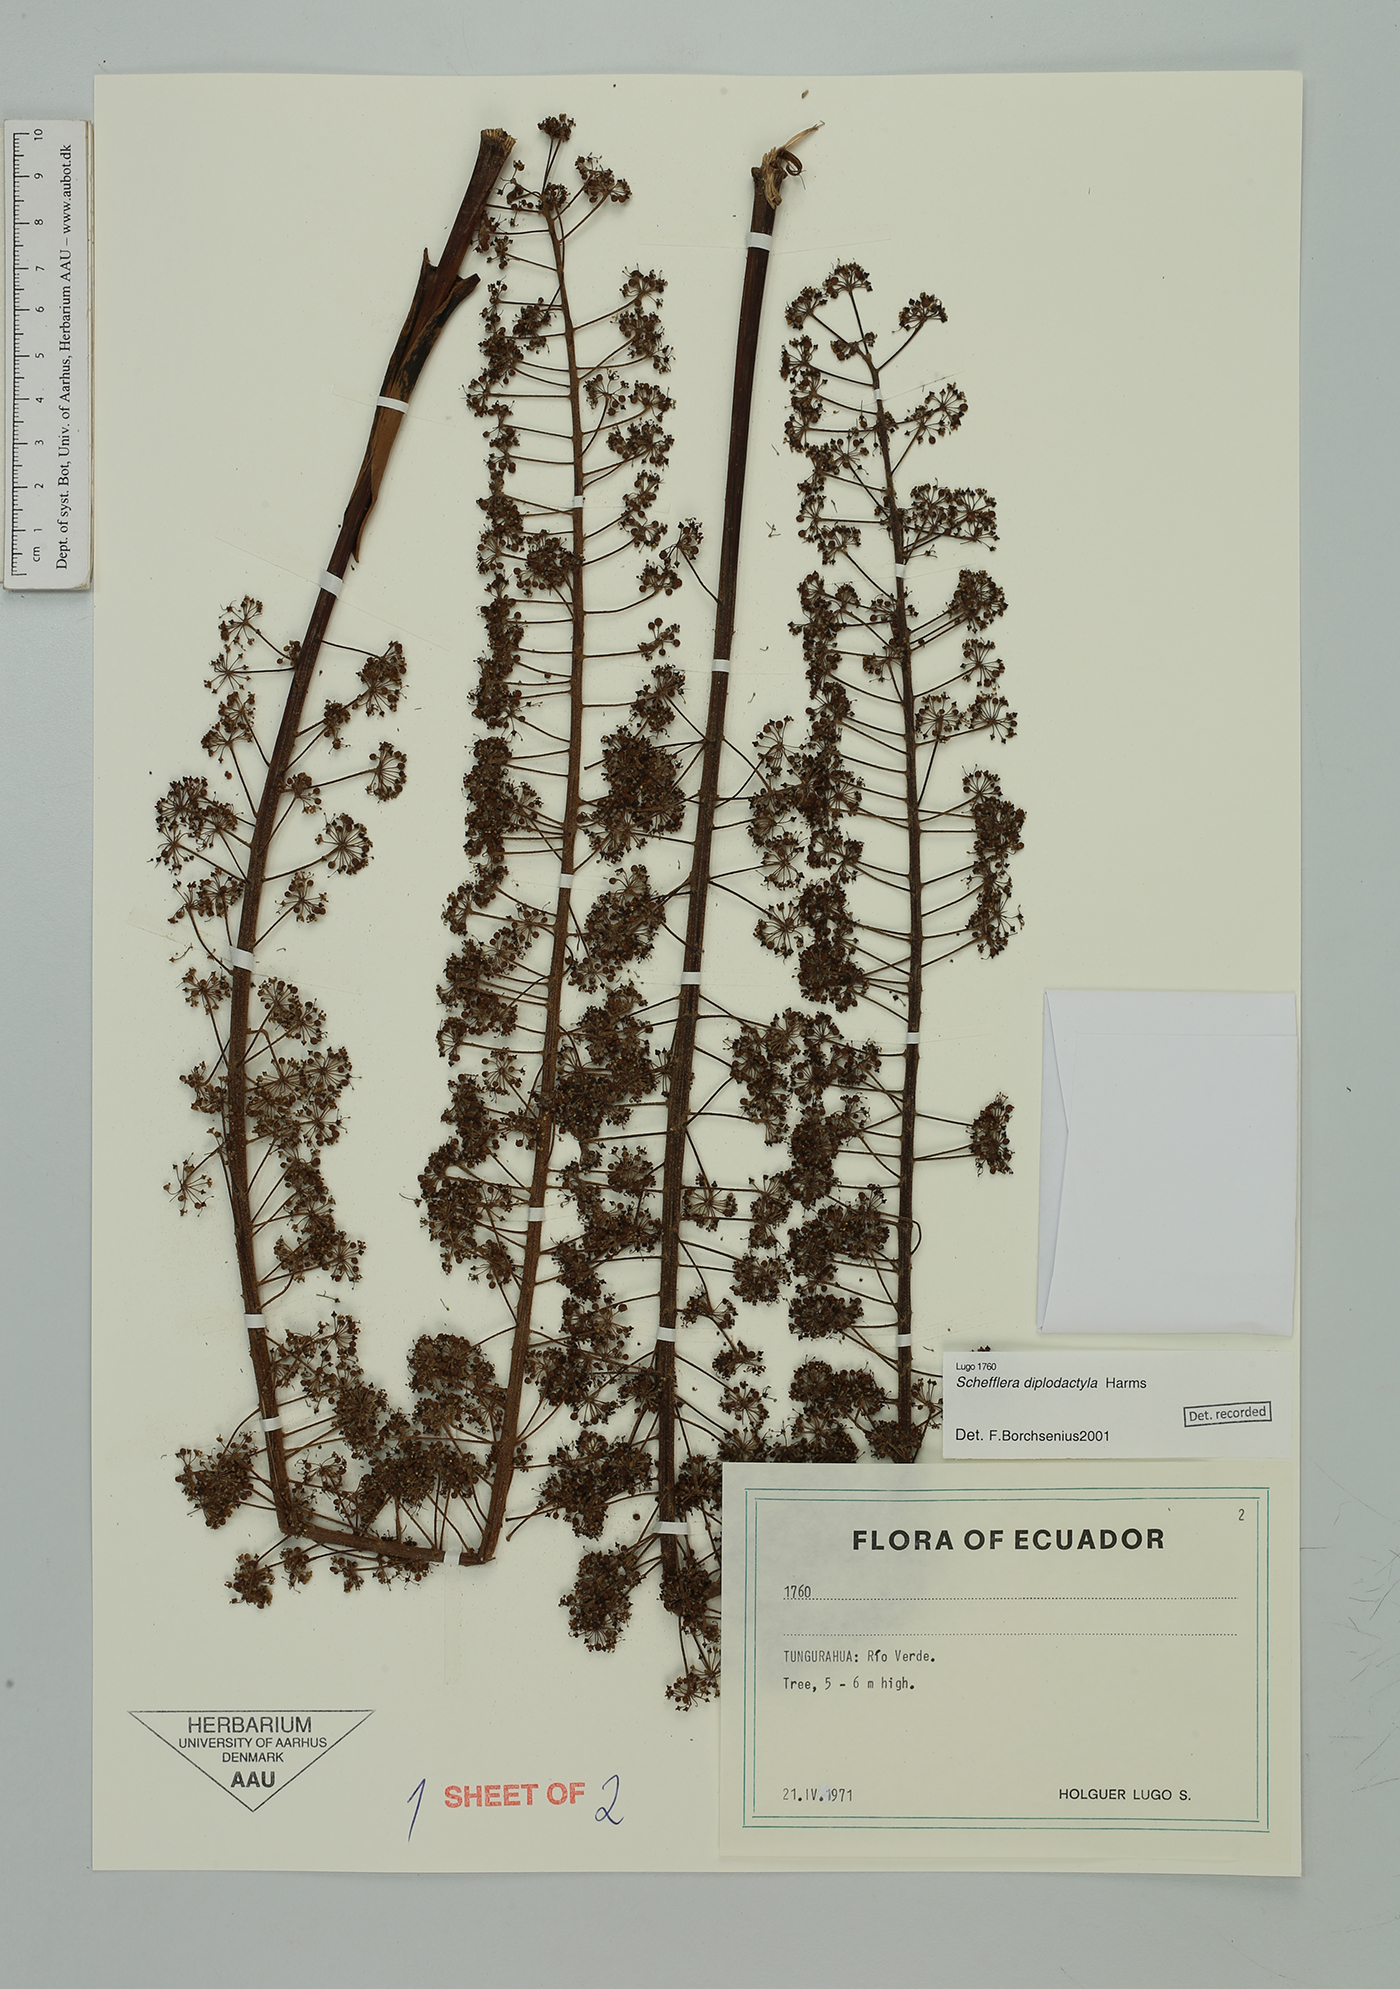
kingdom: Plantae
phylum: Tracheophyta
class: Magnoliopsida
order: Apiales
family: Araliaceae
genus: Sciodaphyllum
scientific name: Sciodaphyllum diplodactylum
